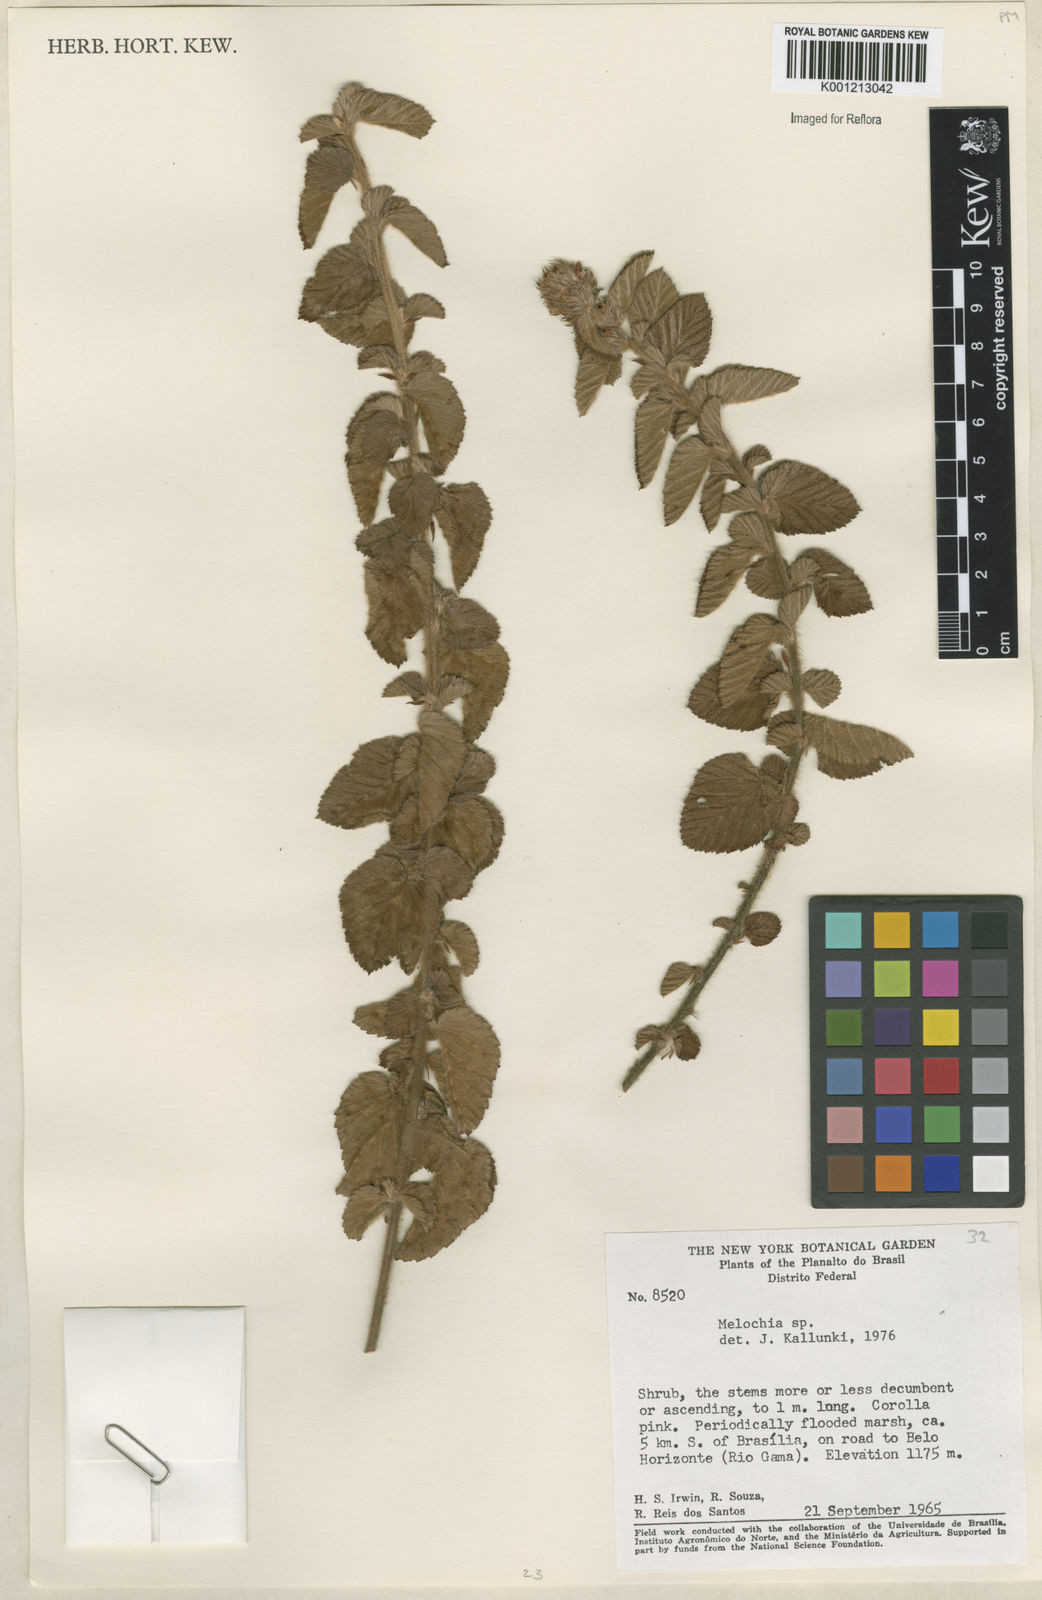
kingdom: Plantae
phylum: Tracheophyta
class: Magnoliopsida
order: Malvales
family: Malvaceae
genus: Melochia
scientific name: Melochia
